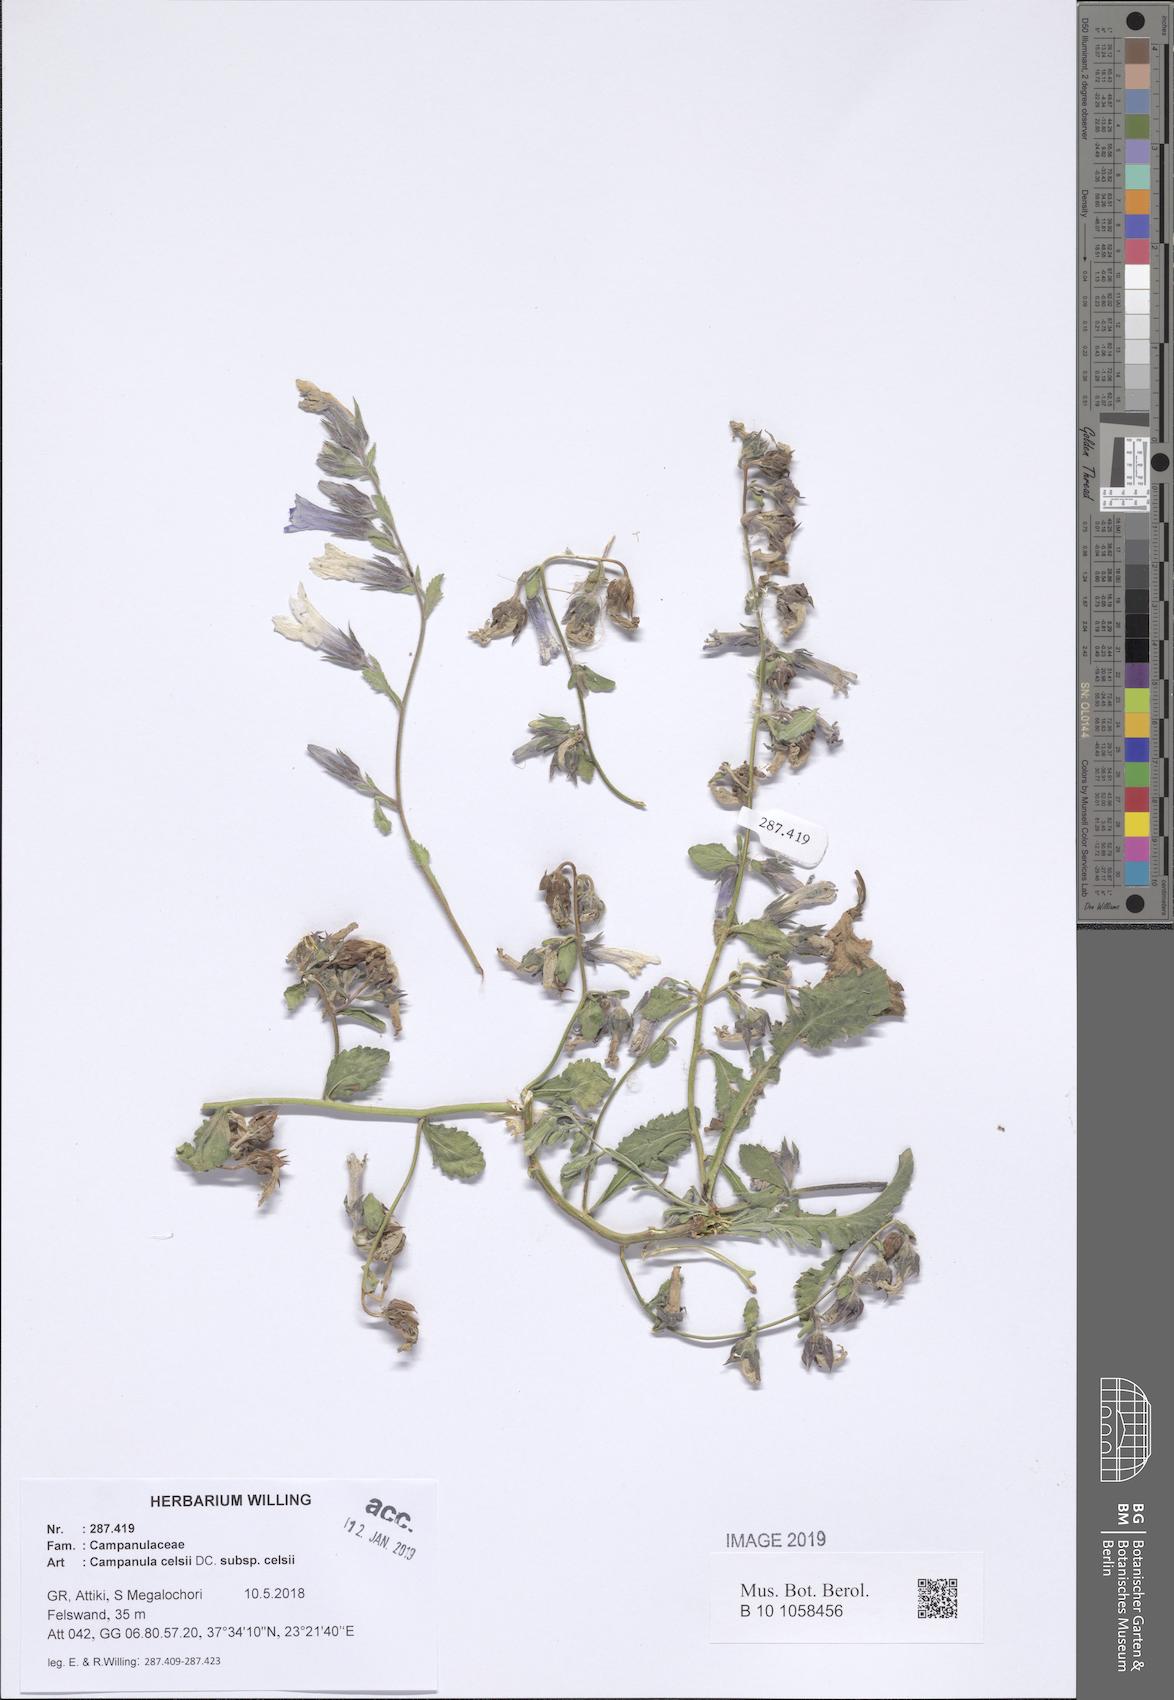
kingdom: Plantae
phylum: Tracheophyta
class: Magnoliopsida
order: Asterales
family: Campanulaceae
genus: Campanula
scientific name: Campanula celsii
